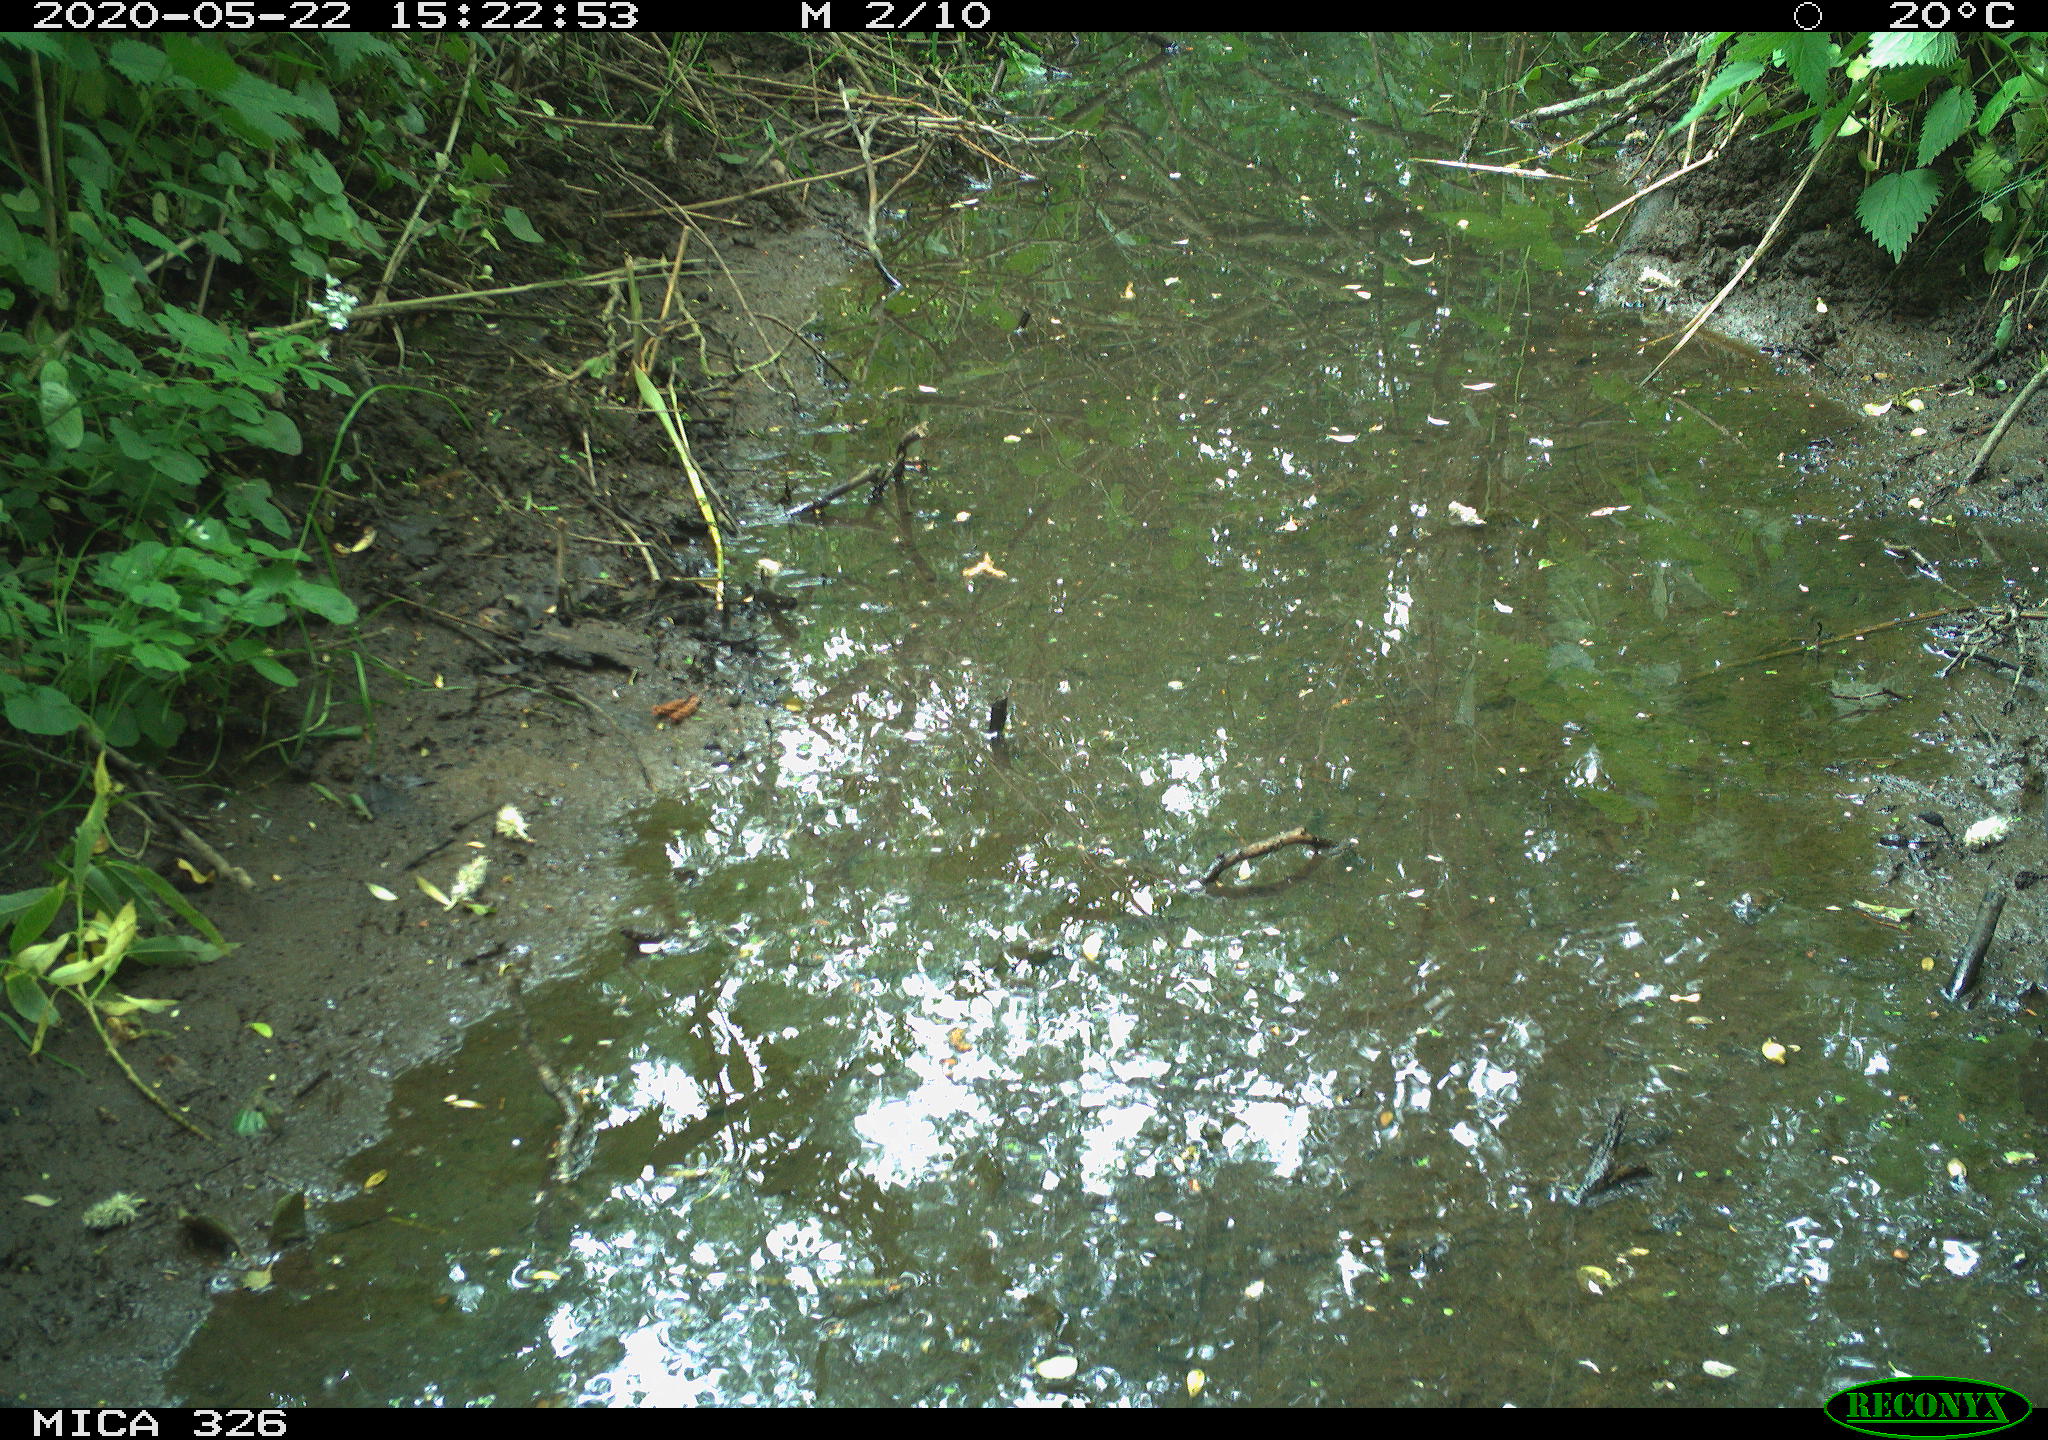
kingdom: Animalia
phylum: Chordata
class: Aves
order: Passeriformes
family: Turdidae
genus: Turdus
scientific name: Turdus merula
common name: Common blackbird
